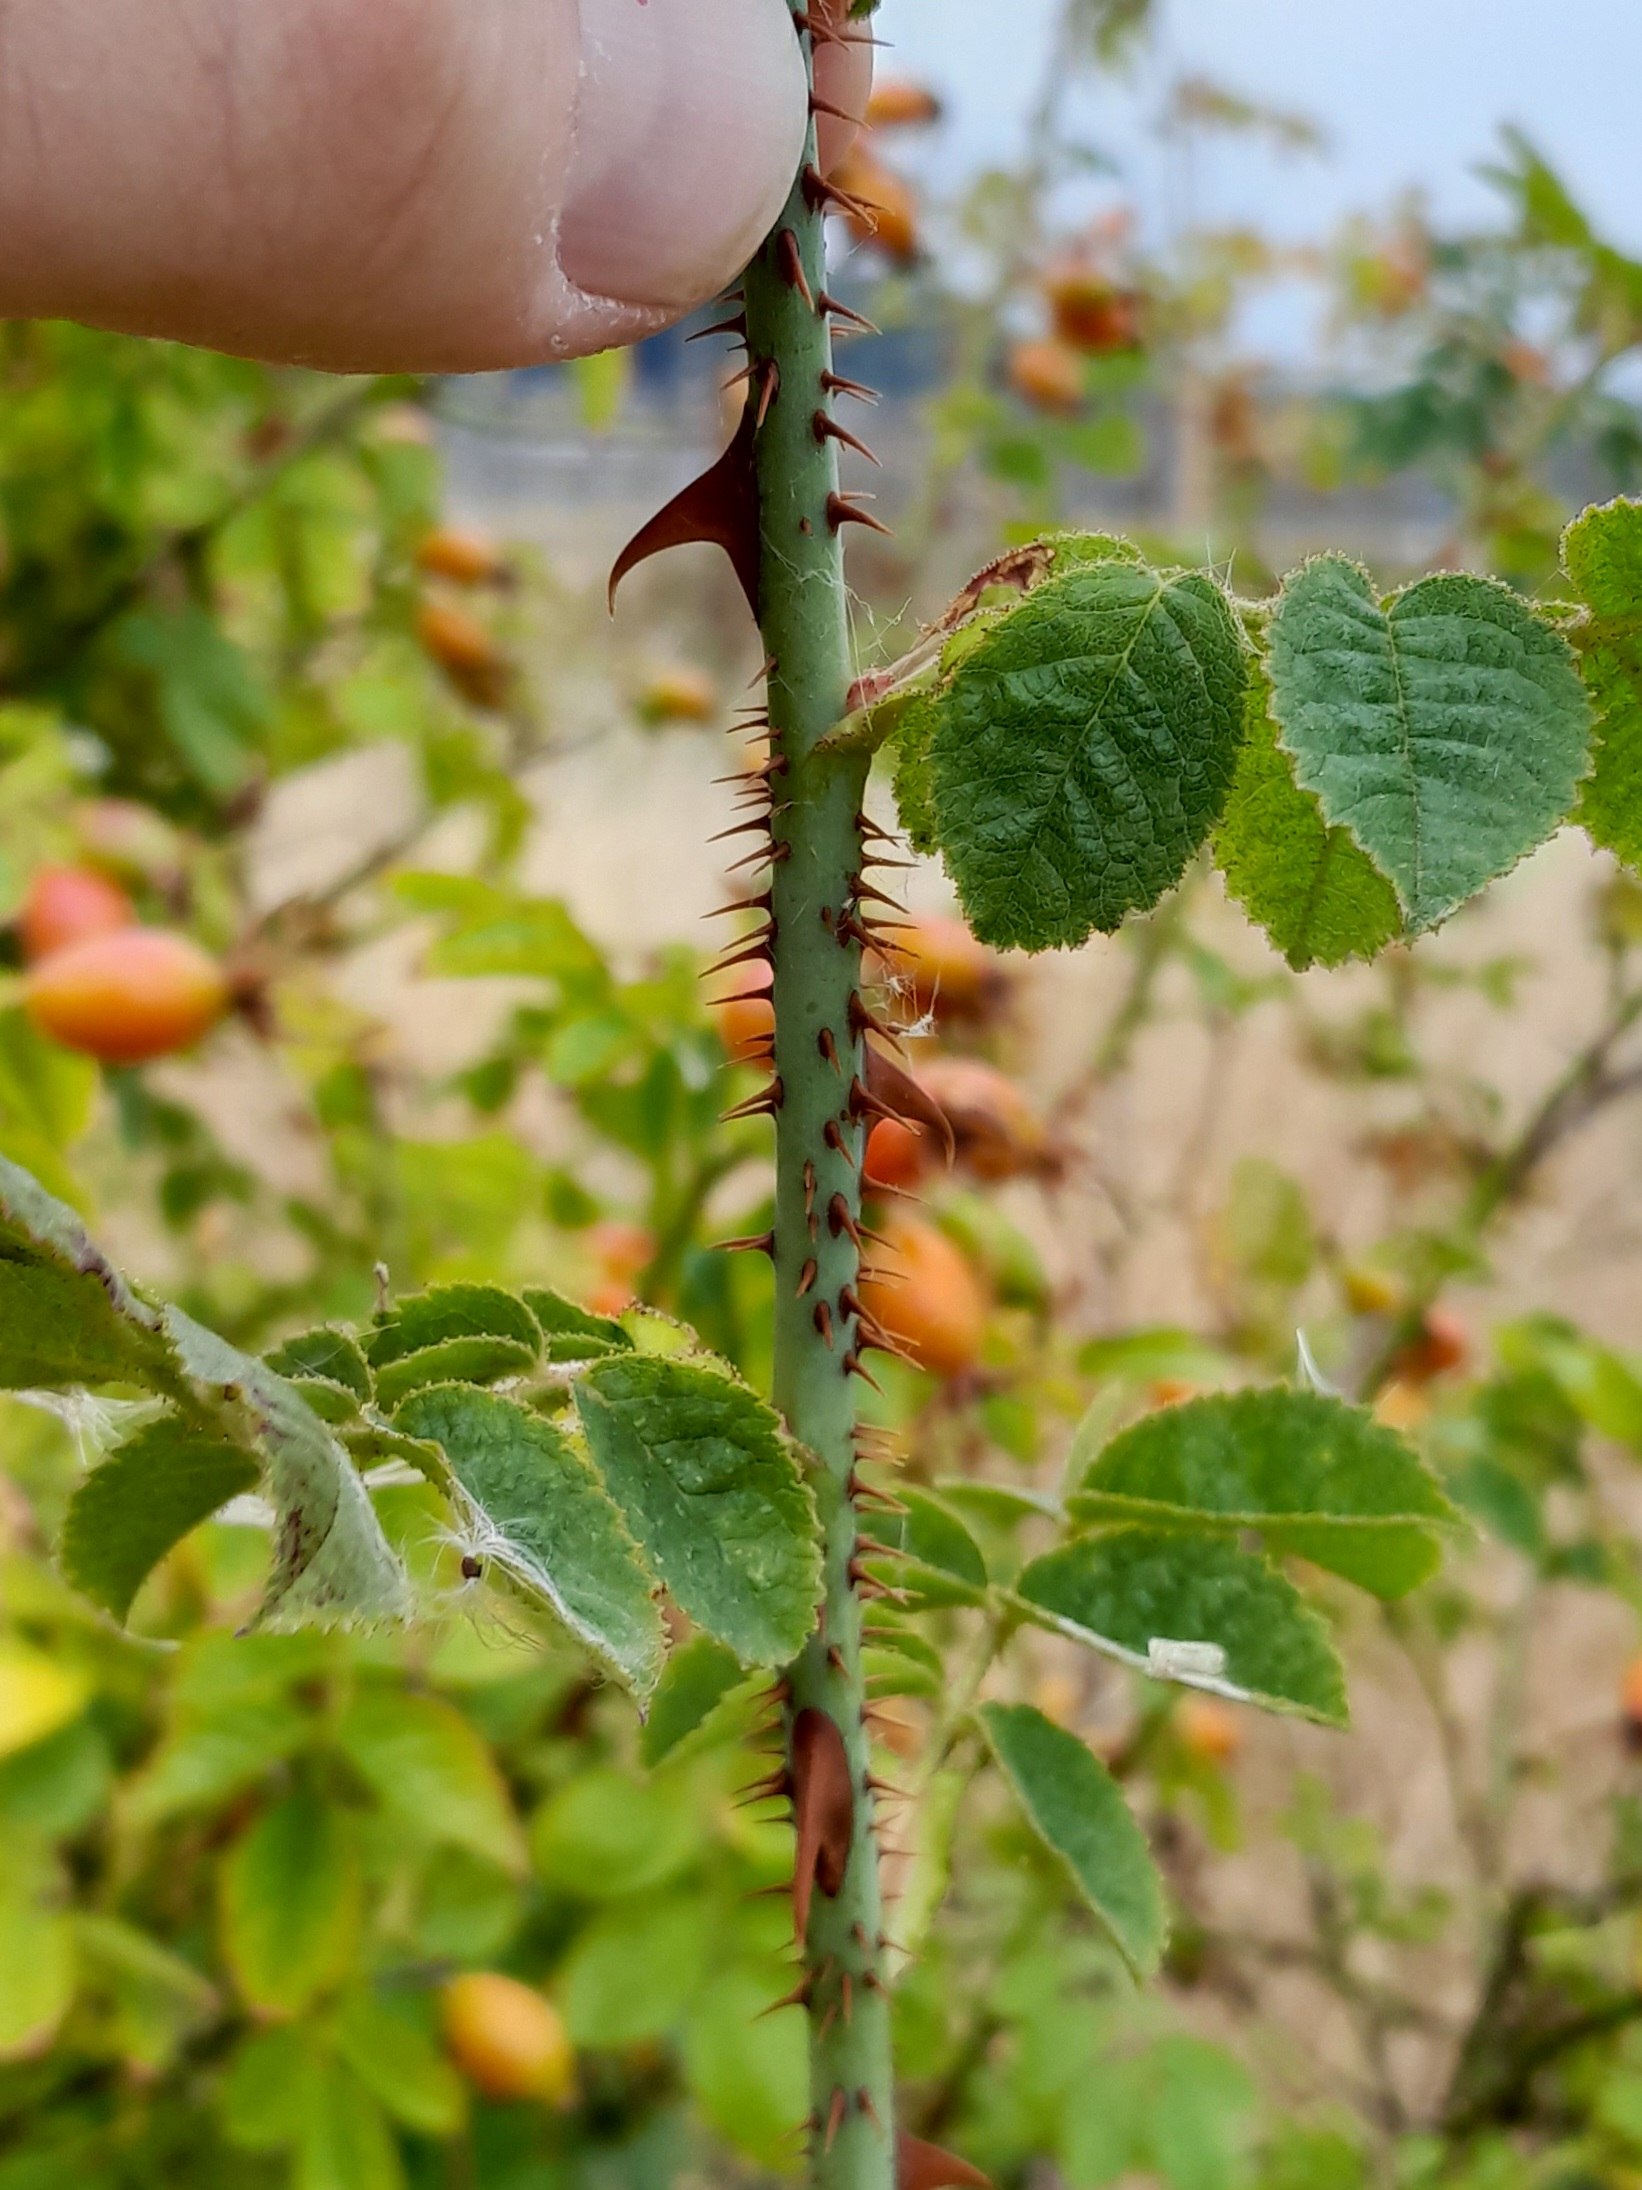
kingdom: Plantae
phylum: Tracheophyta
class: Magnoliopsida
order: Rosales
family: Rosaceae
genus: Rosa
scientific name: Rosa rubiginosa
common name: Æble-rose
